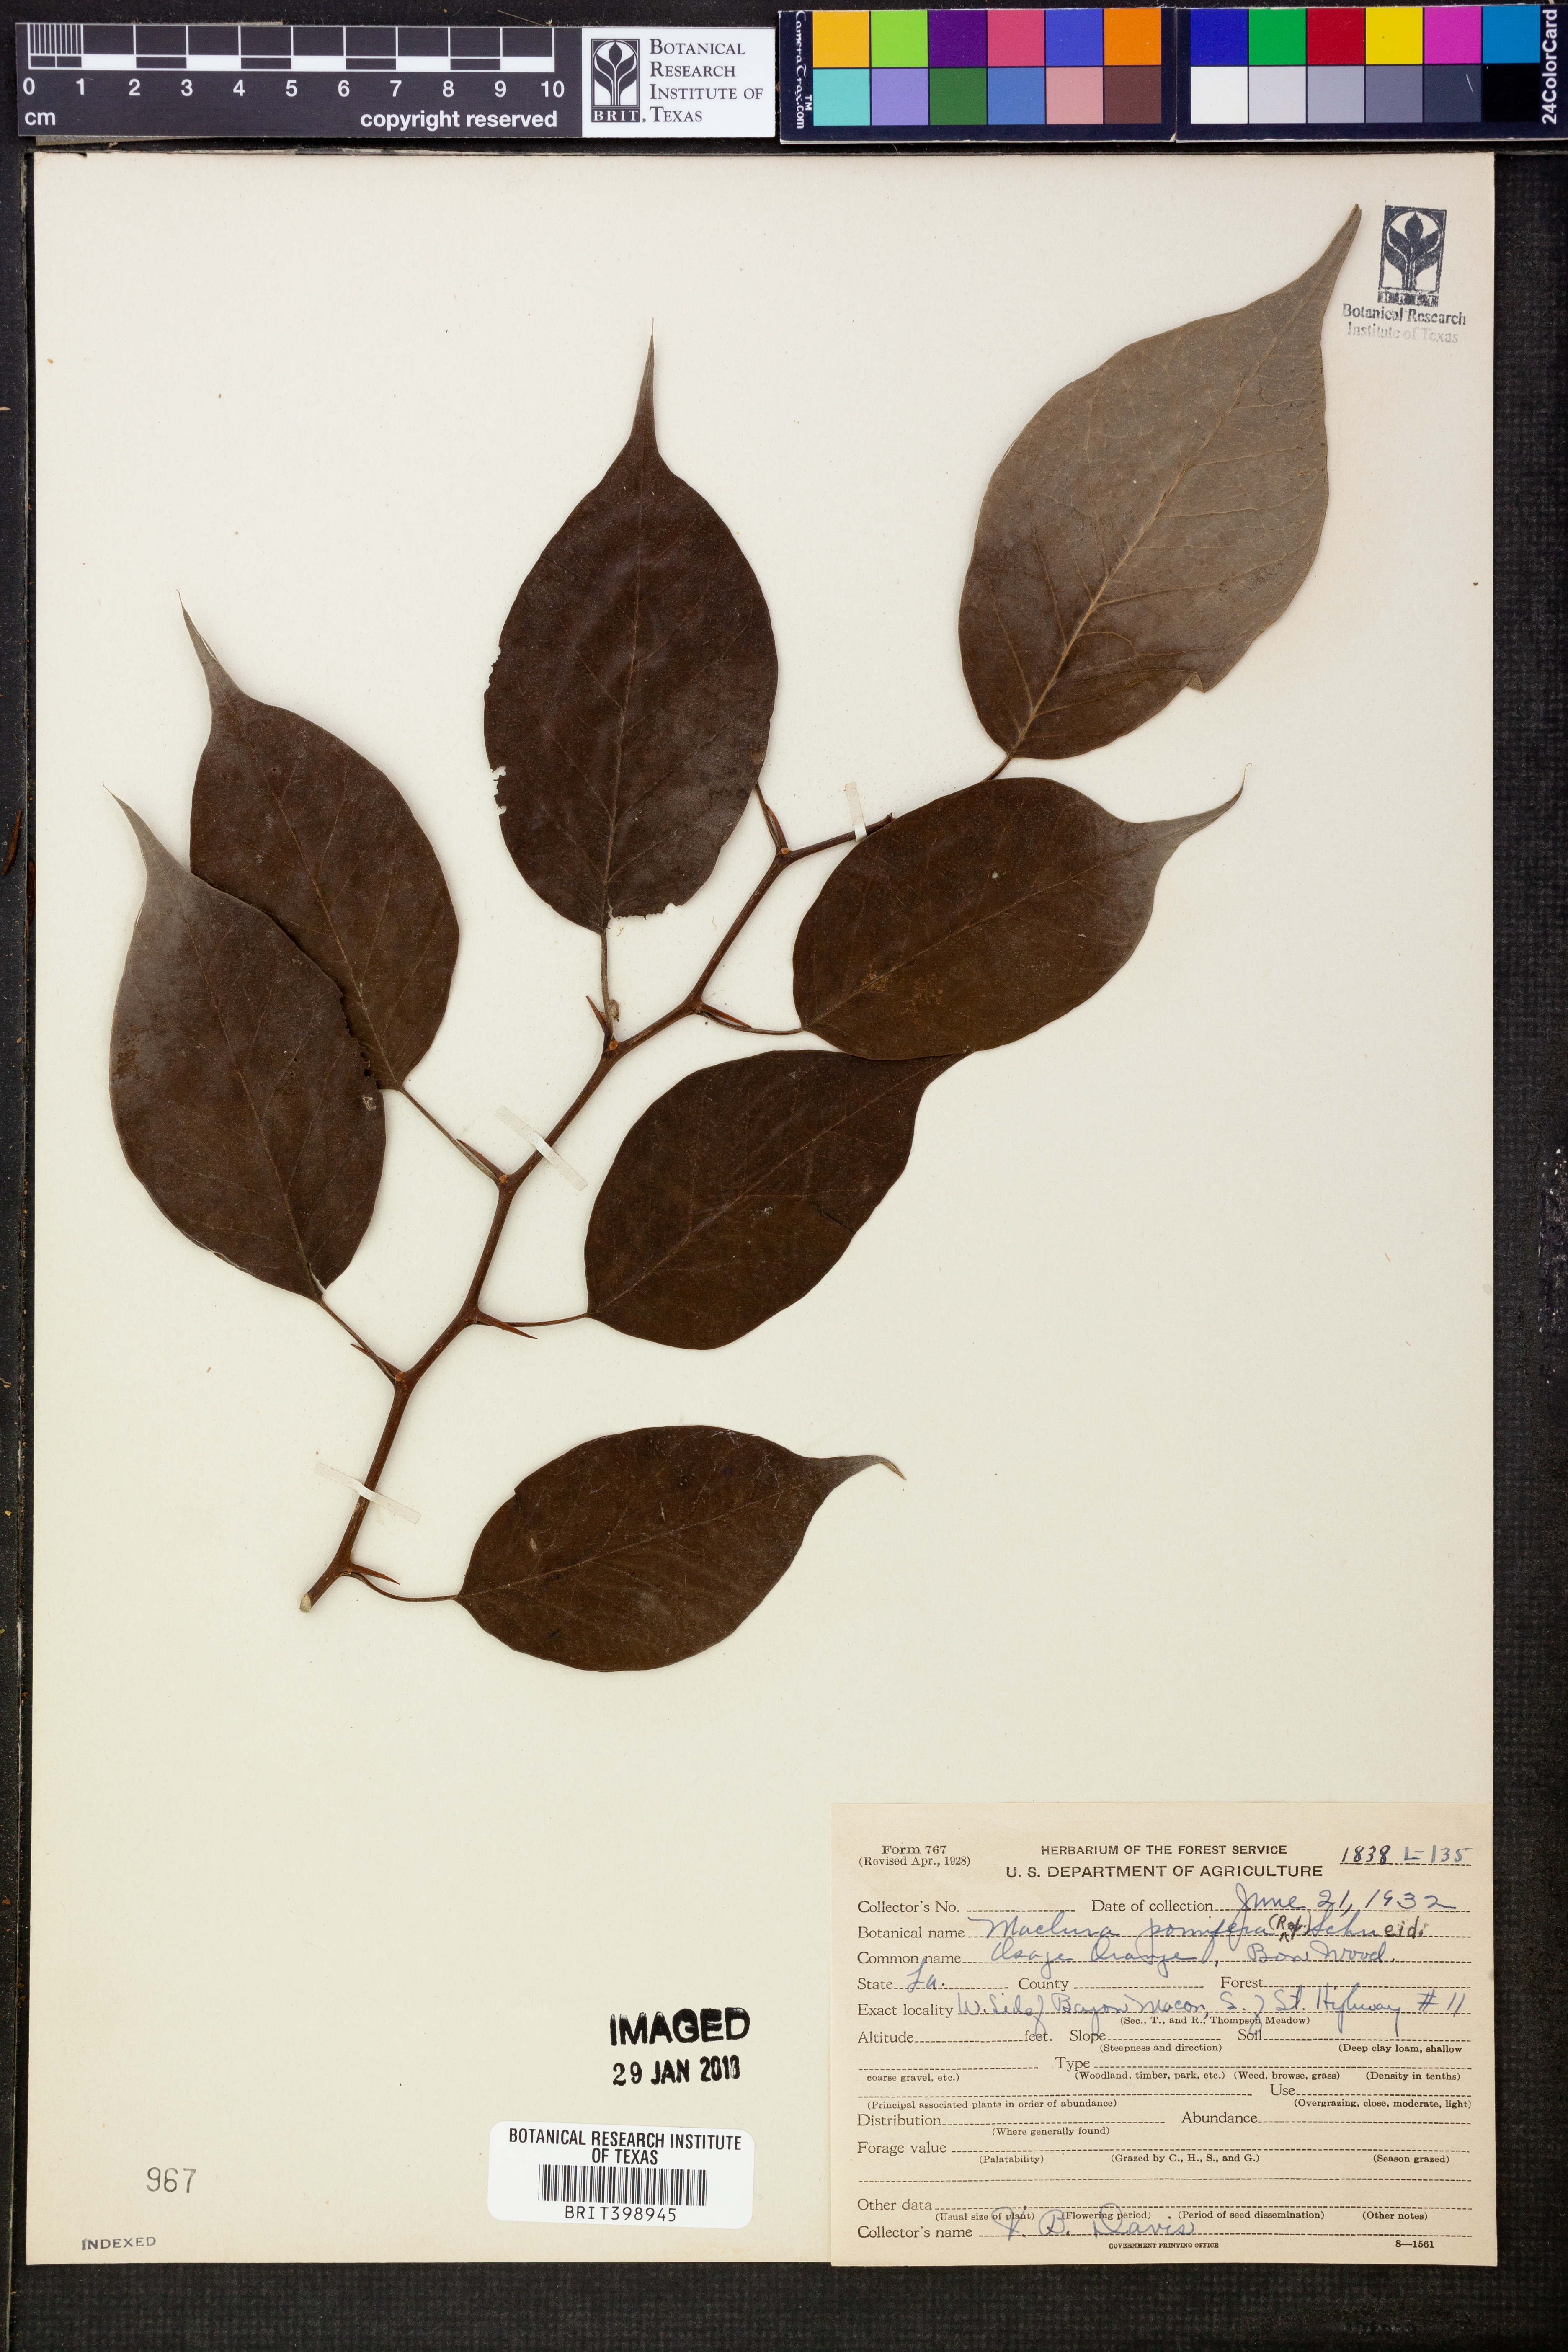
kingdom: Plantae
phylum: Tracheophyta
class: Magnoliopsida
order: Rosales
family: Moraceae
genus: Maclura
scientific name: Maclura pomifera
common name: Osage-orange
